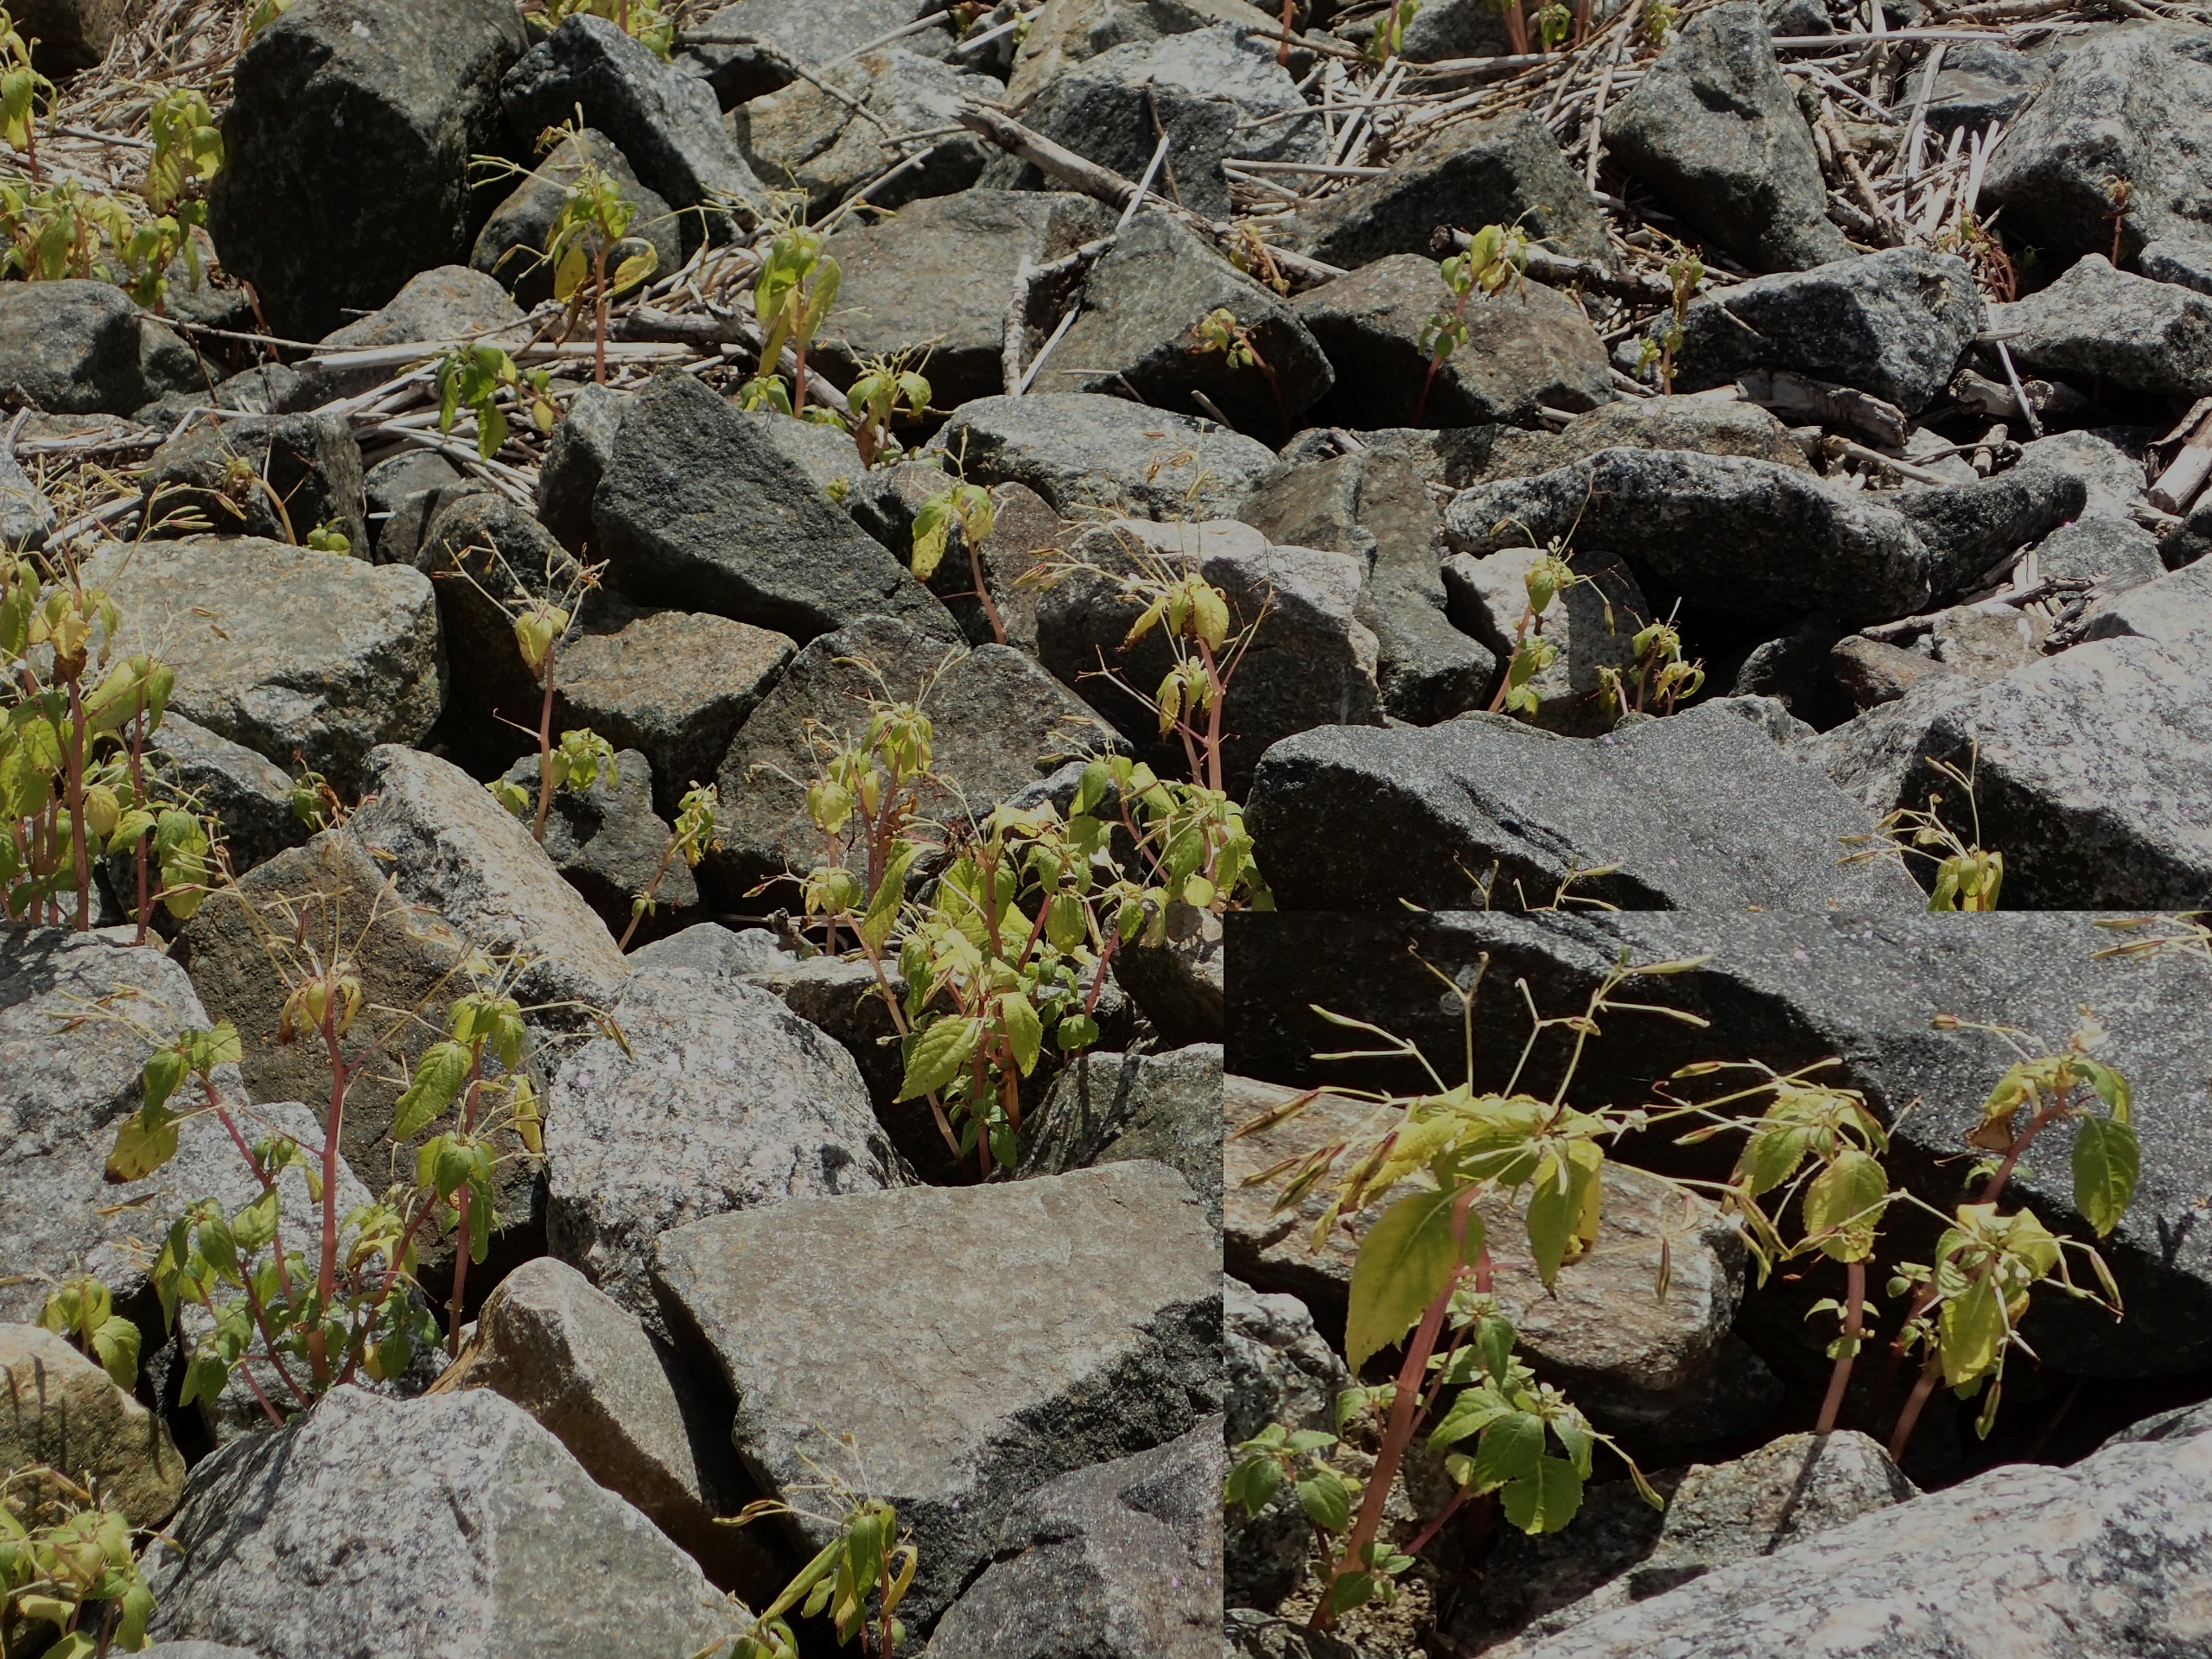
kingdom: Plantae
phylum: Tracheophyta
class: Magnoliopsida
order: Ericales
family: Balsaminaceae
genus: Impatiens
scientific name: Impatiens parviflora
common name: Småblomstret balsamin
